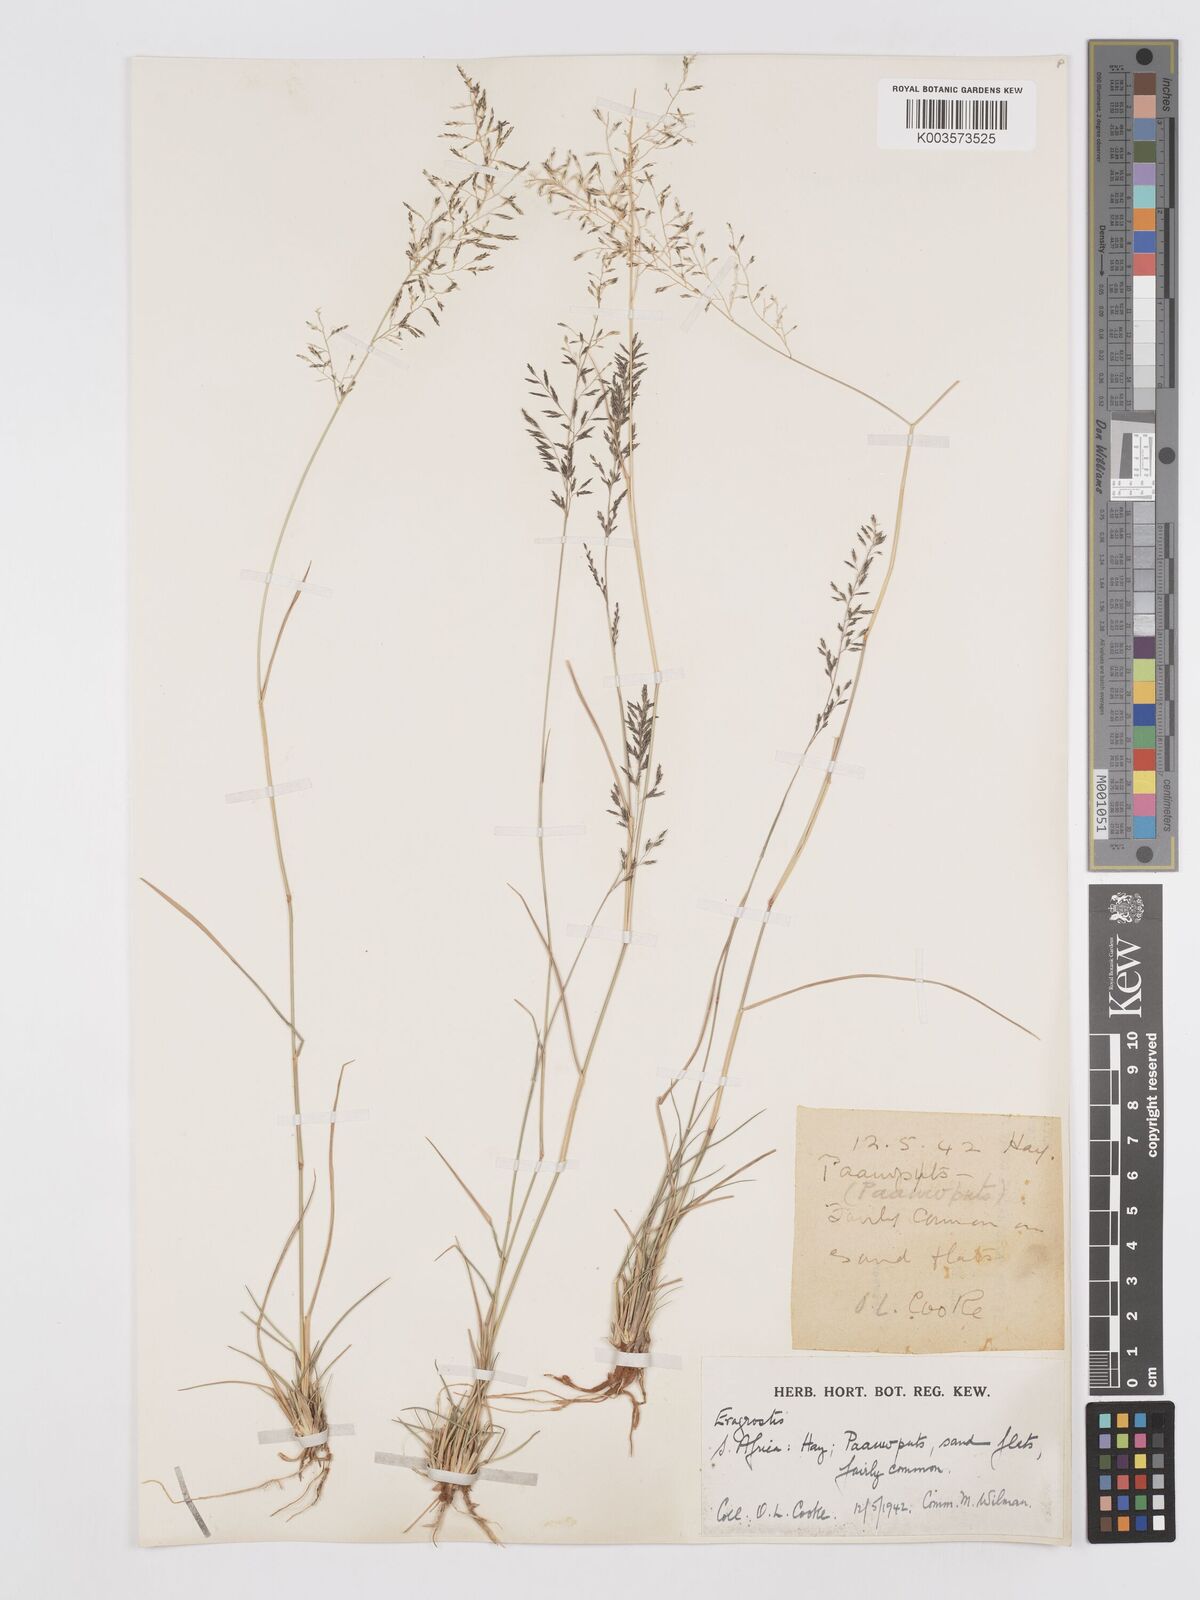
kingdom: Plantae
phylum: Tracheophyta
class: Liliopsida
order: Poales
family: Poaceae
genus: Eragrostis
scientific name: Eragrostis lehmanniana
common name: Lehmann lovegrass
